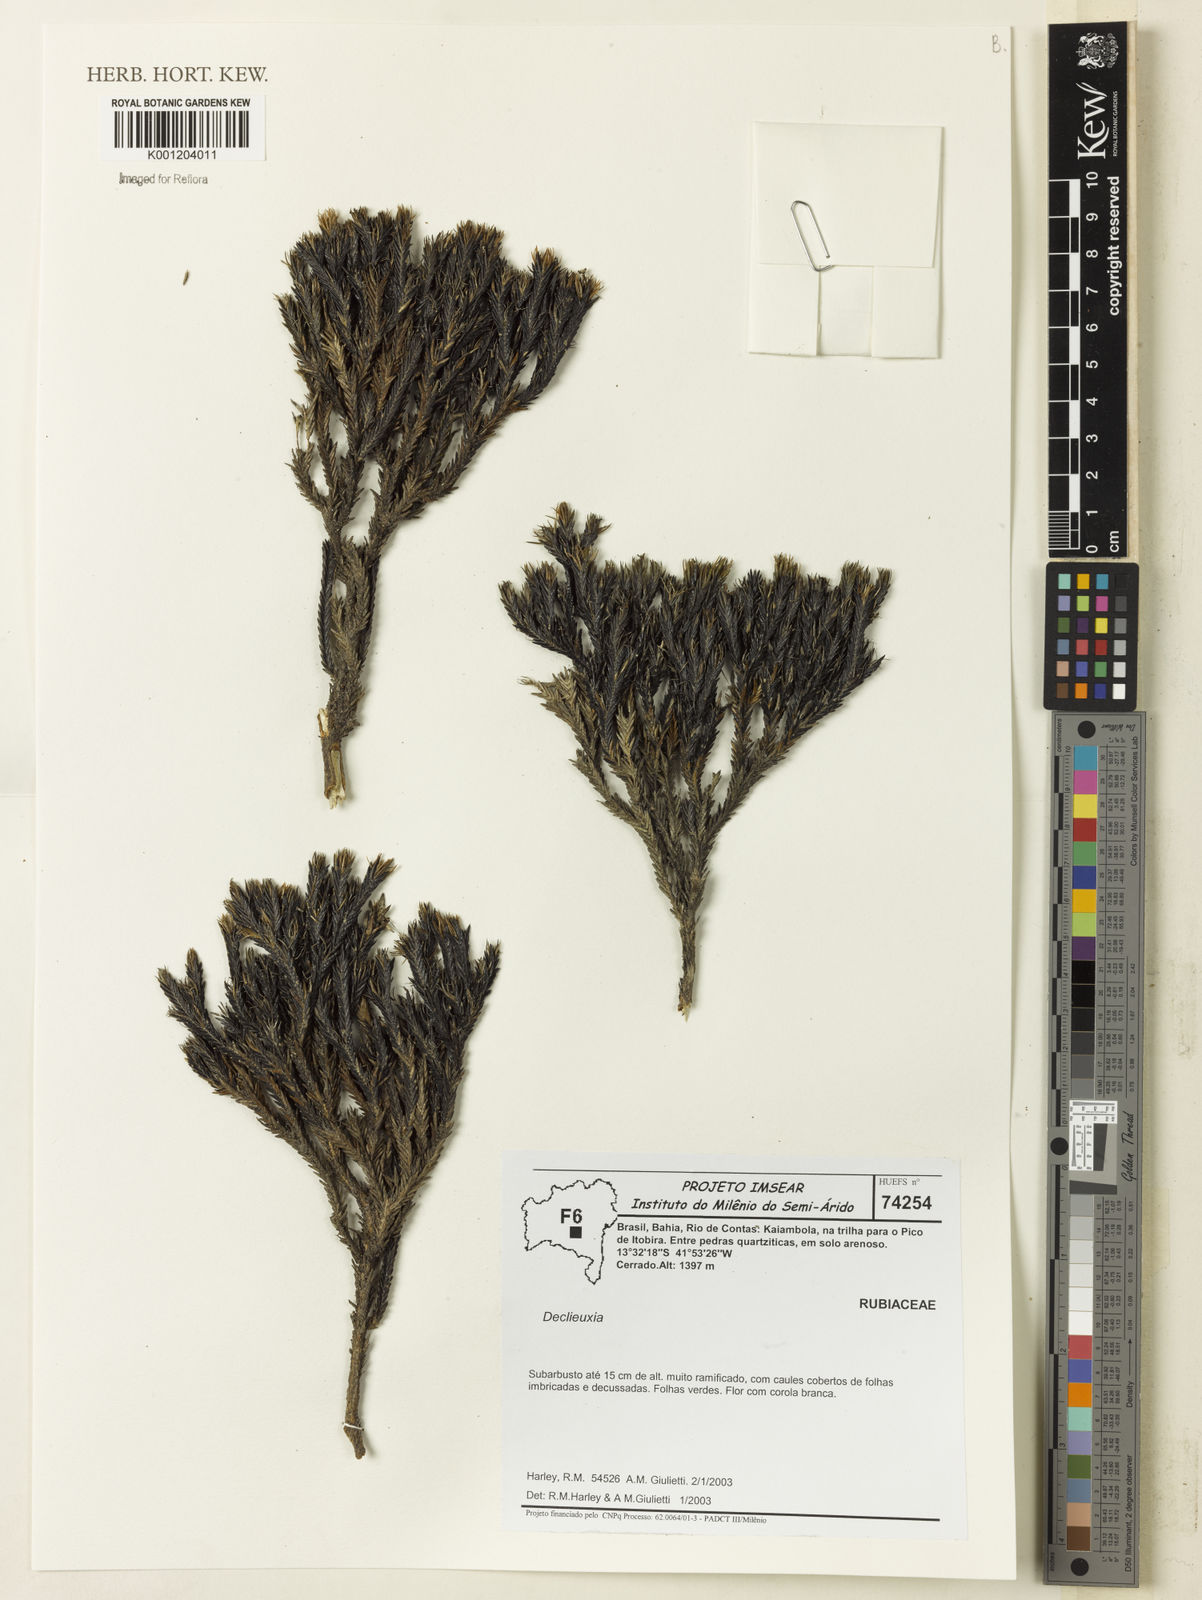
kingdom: Plantae
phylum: Tracheophyta
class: Magnoliopsida
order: Gentianales
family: Rubiaceae
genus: Declieuxia
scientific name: Declieuxia
